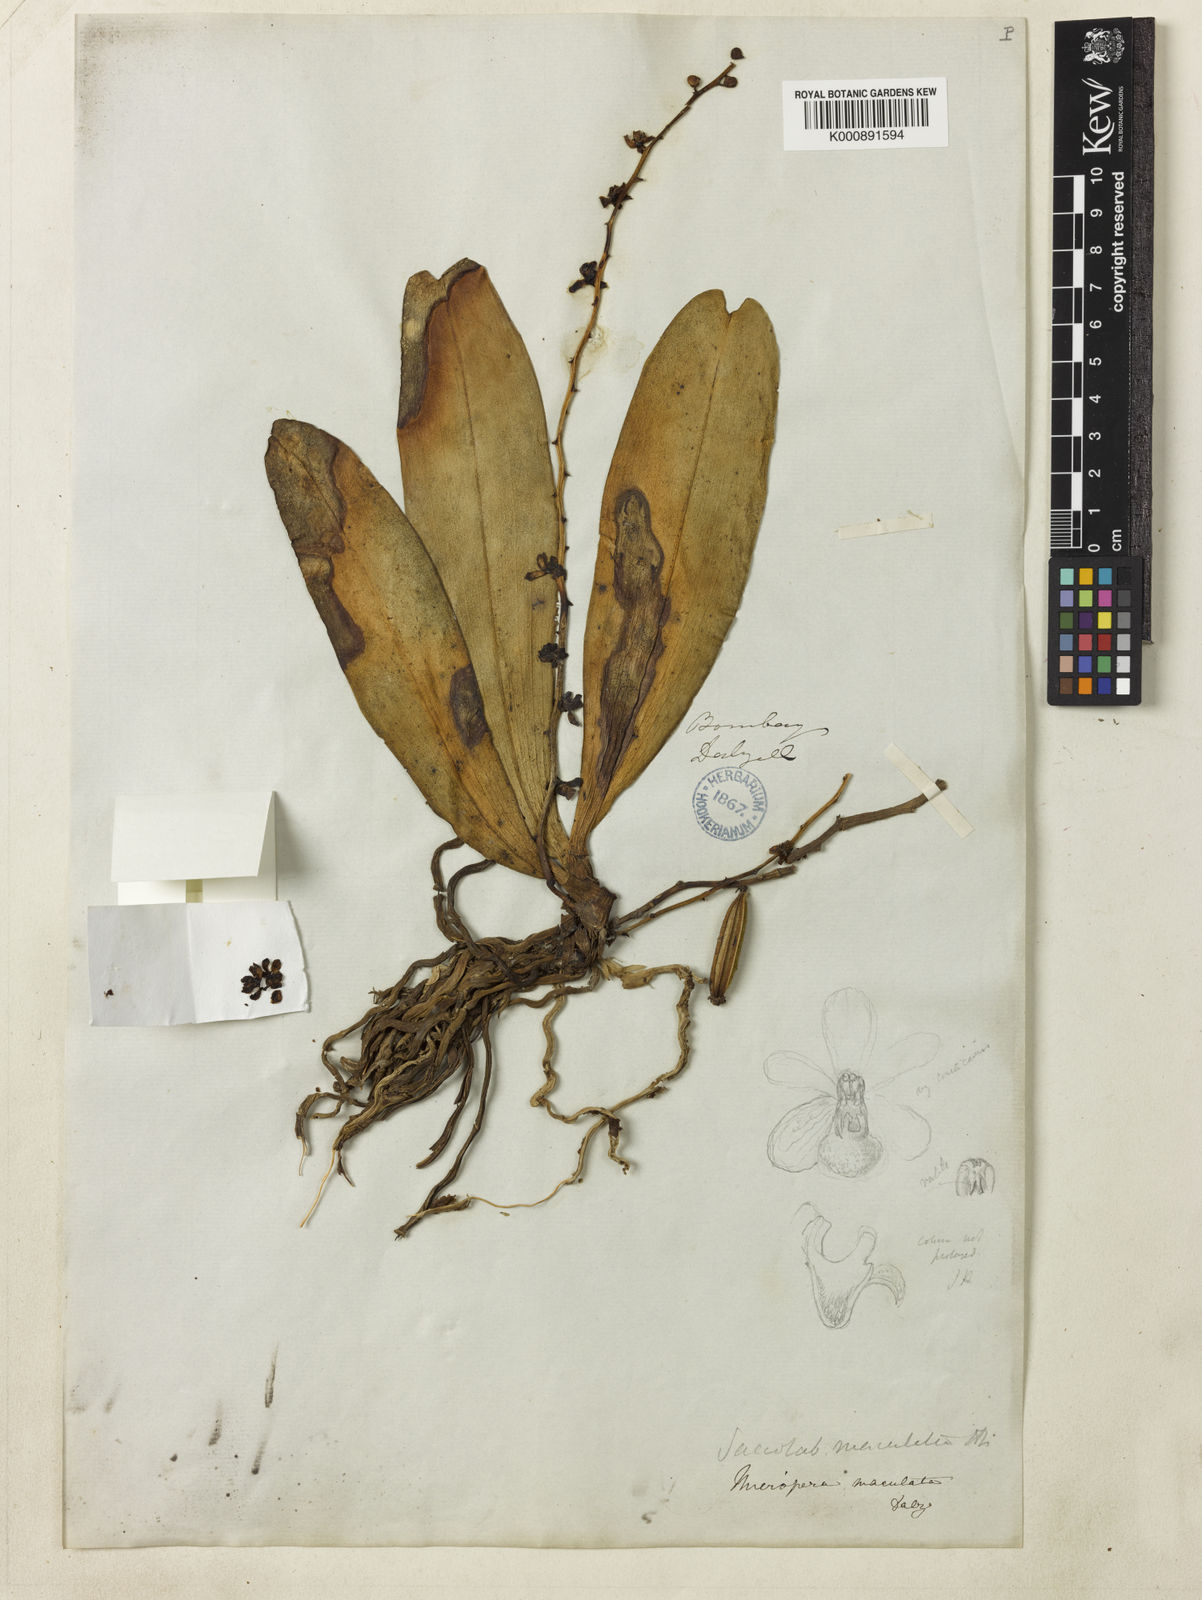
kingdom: Plantae
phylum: Tracheophyta
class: Liliopsida
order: Asparagales
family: Orchidaceae
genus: Smithsonia
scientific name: Smithsonia maculata
